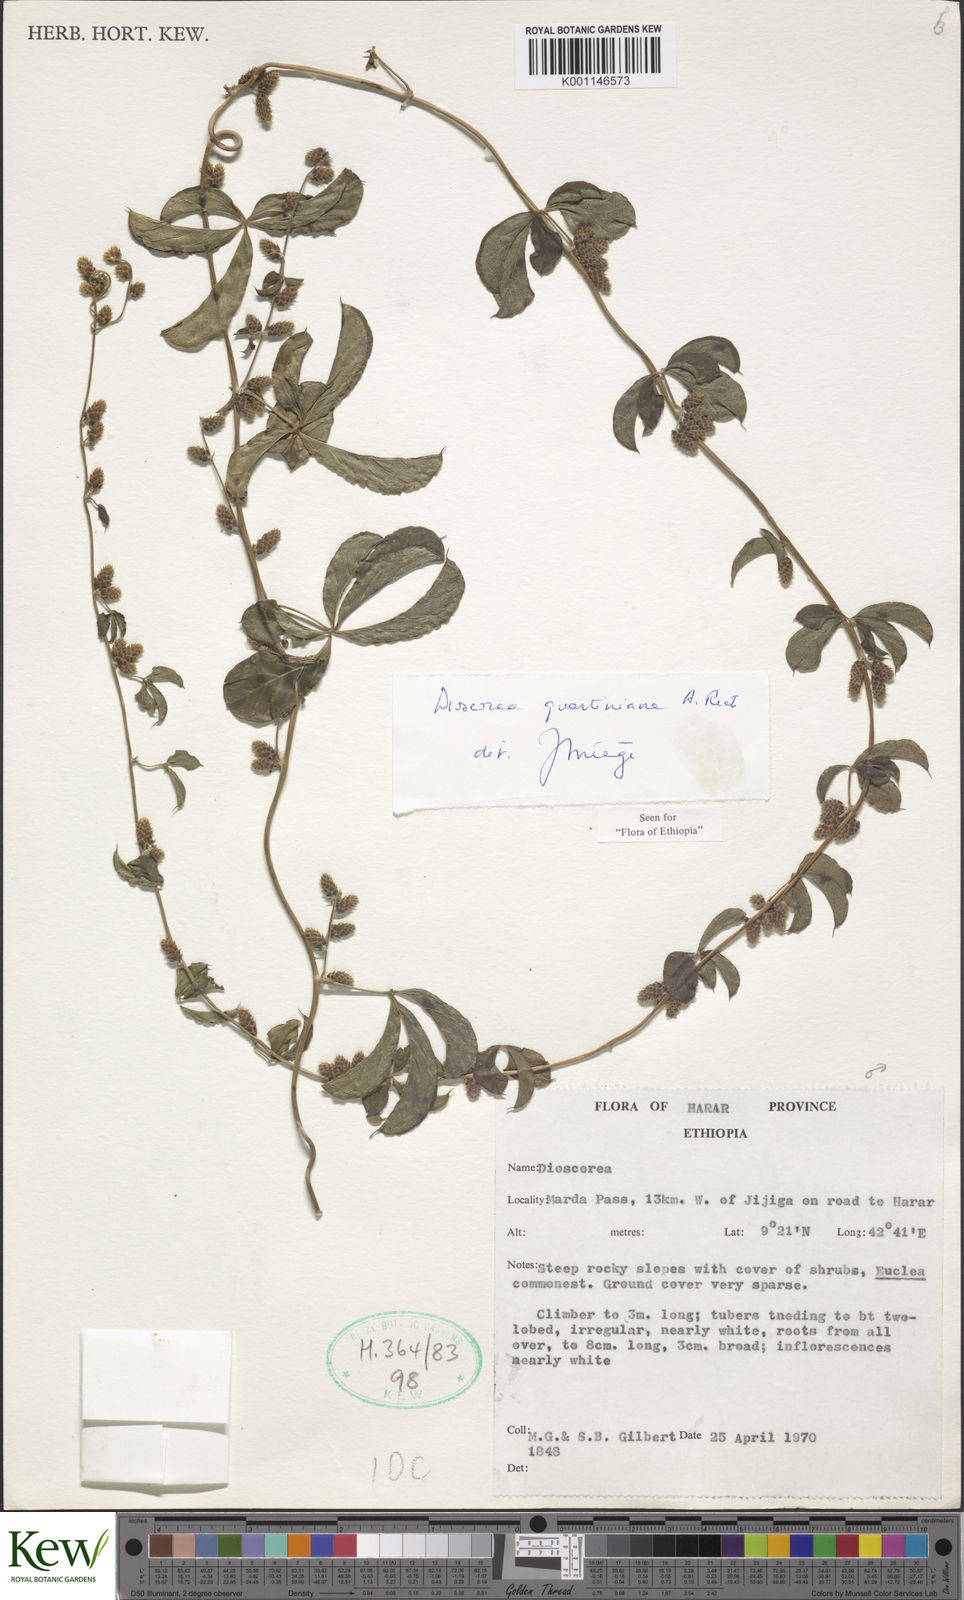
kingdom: Plantae
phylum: Tracheophyta
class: Liliopsida
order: Dioscoreales
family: Dioscoreaceae
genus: Dioscorea
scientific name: Dioscorea quartiniana
